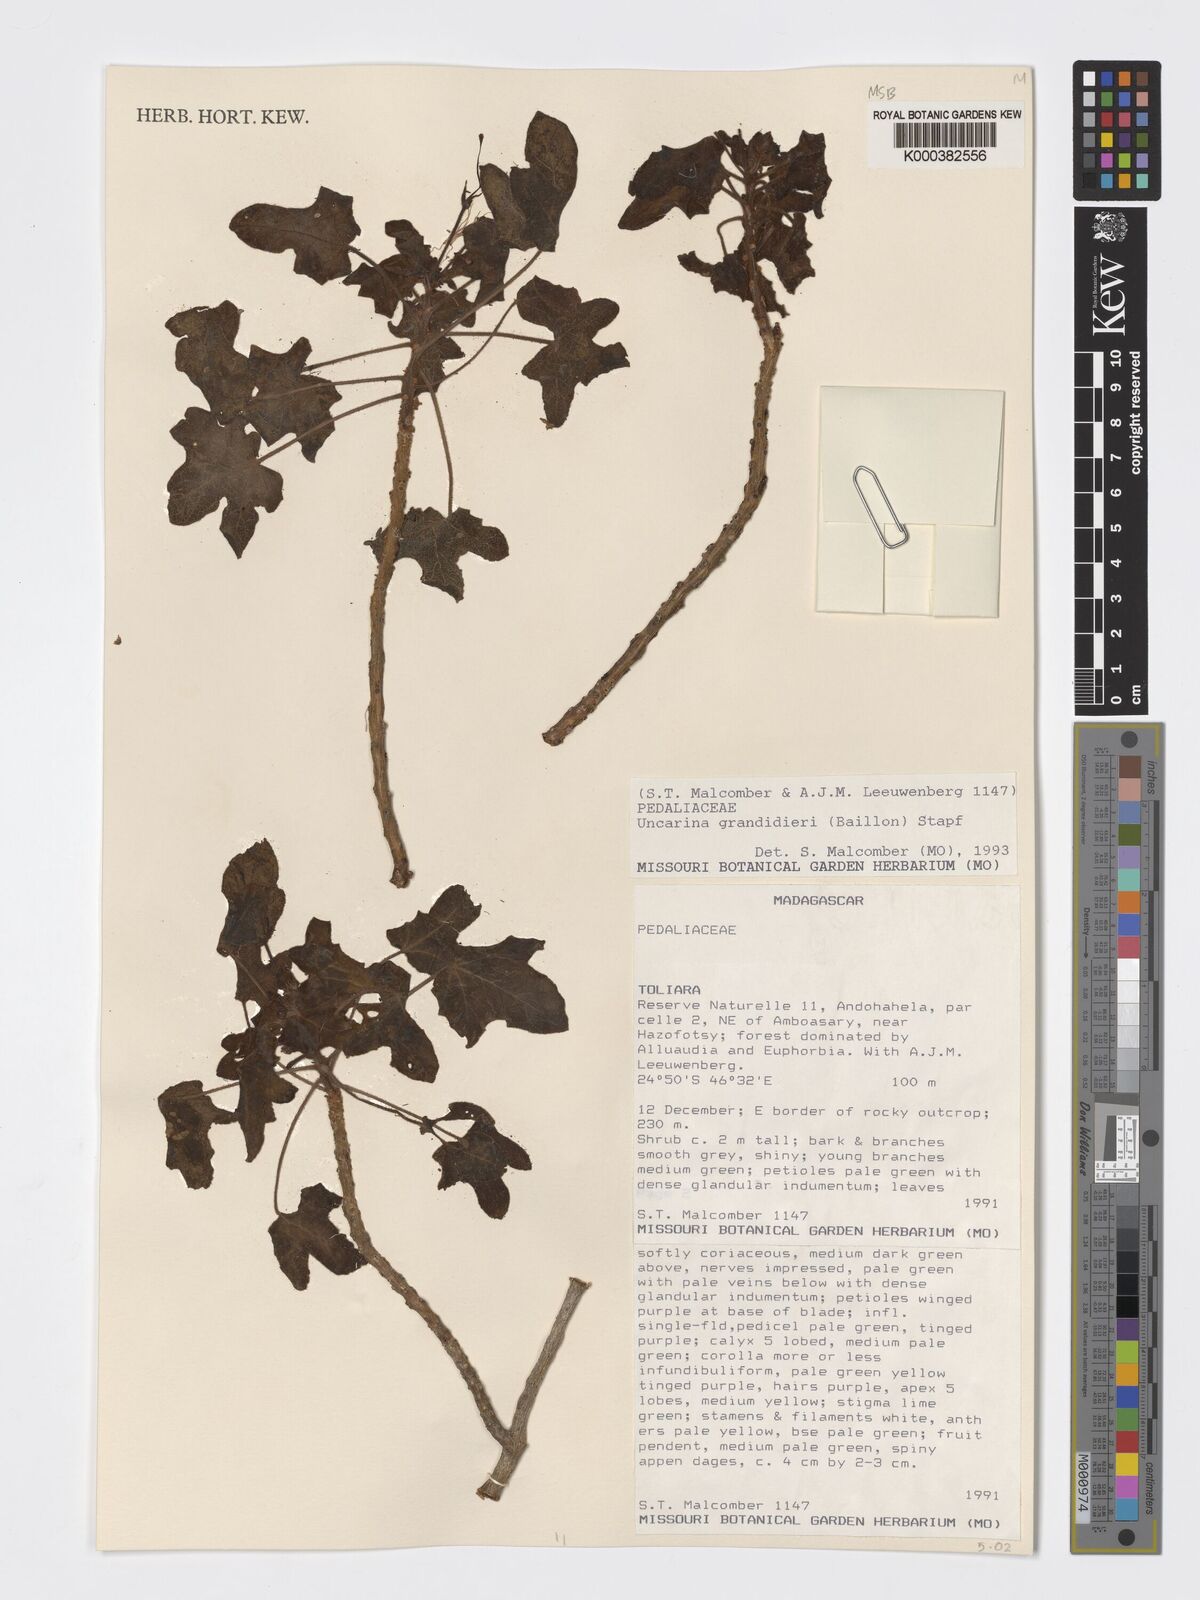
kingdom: Plantae
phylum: Tracheophyta
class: Magnoliopsida
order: Lamiales
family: Pedaliaceae
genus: Uncarina
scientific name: Uncarina
